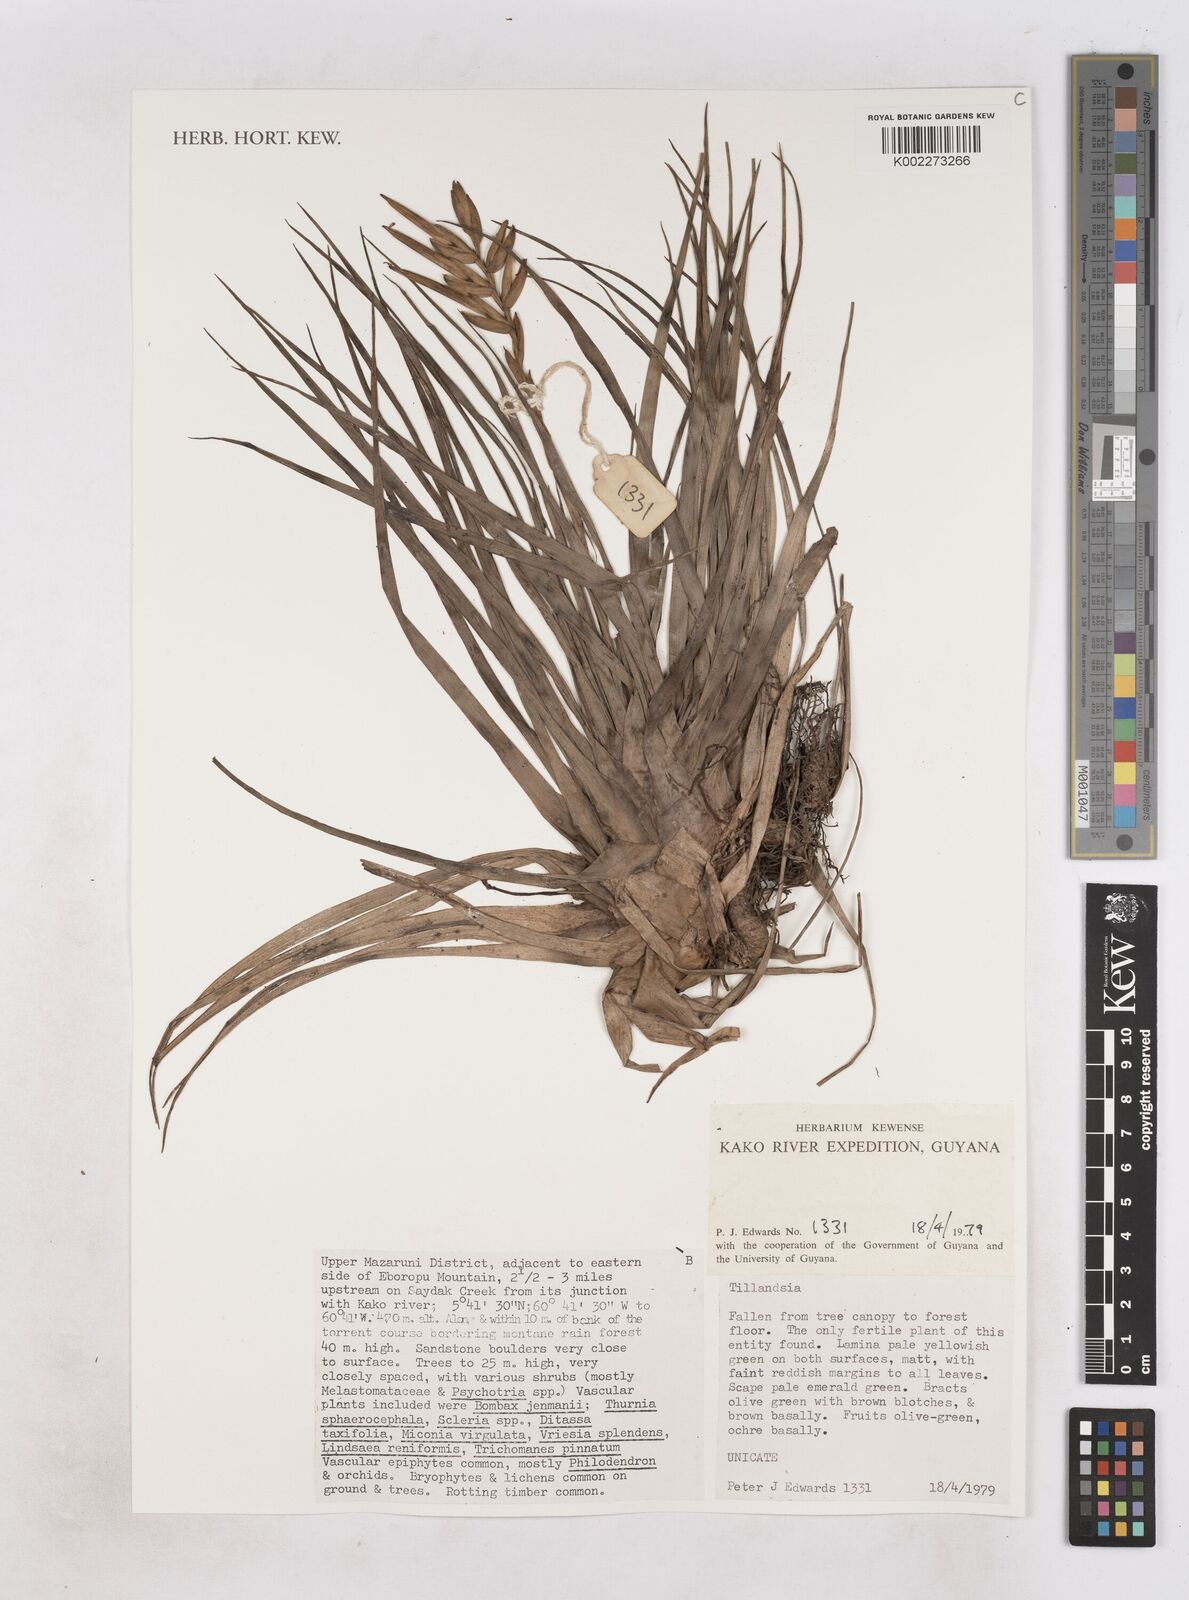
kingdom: Plantae
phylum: Tracheophyta
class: Liliopsida
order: Poales
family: Bromeliaceae
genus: Tillandsia
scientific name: Tillandsia
